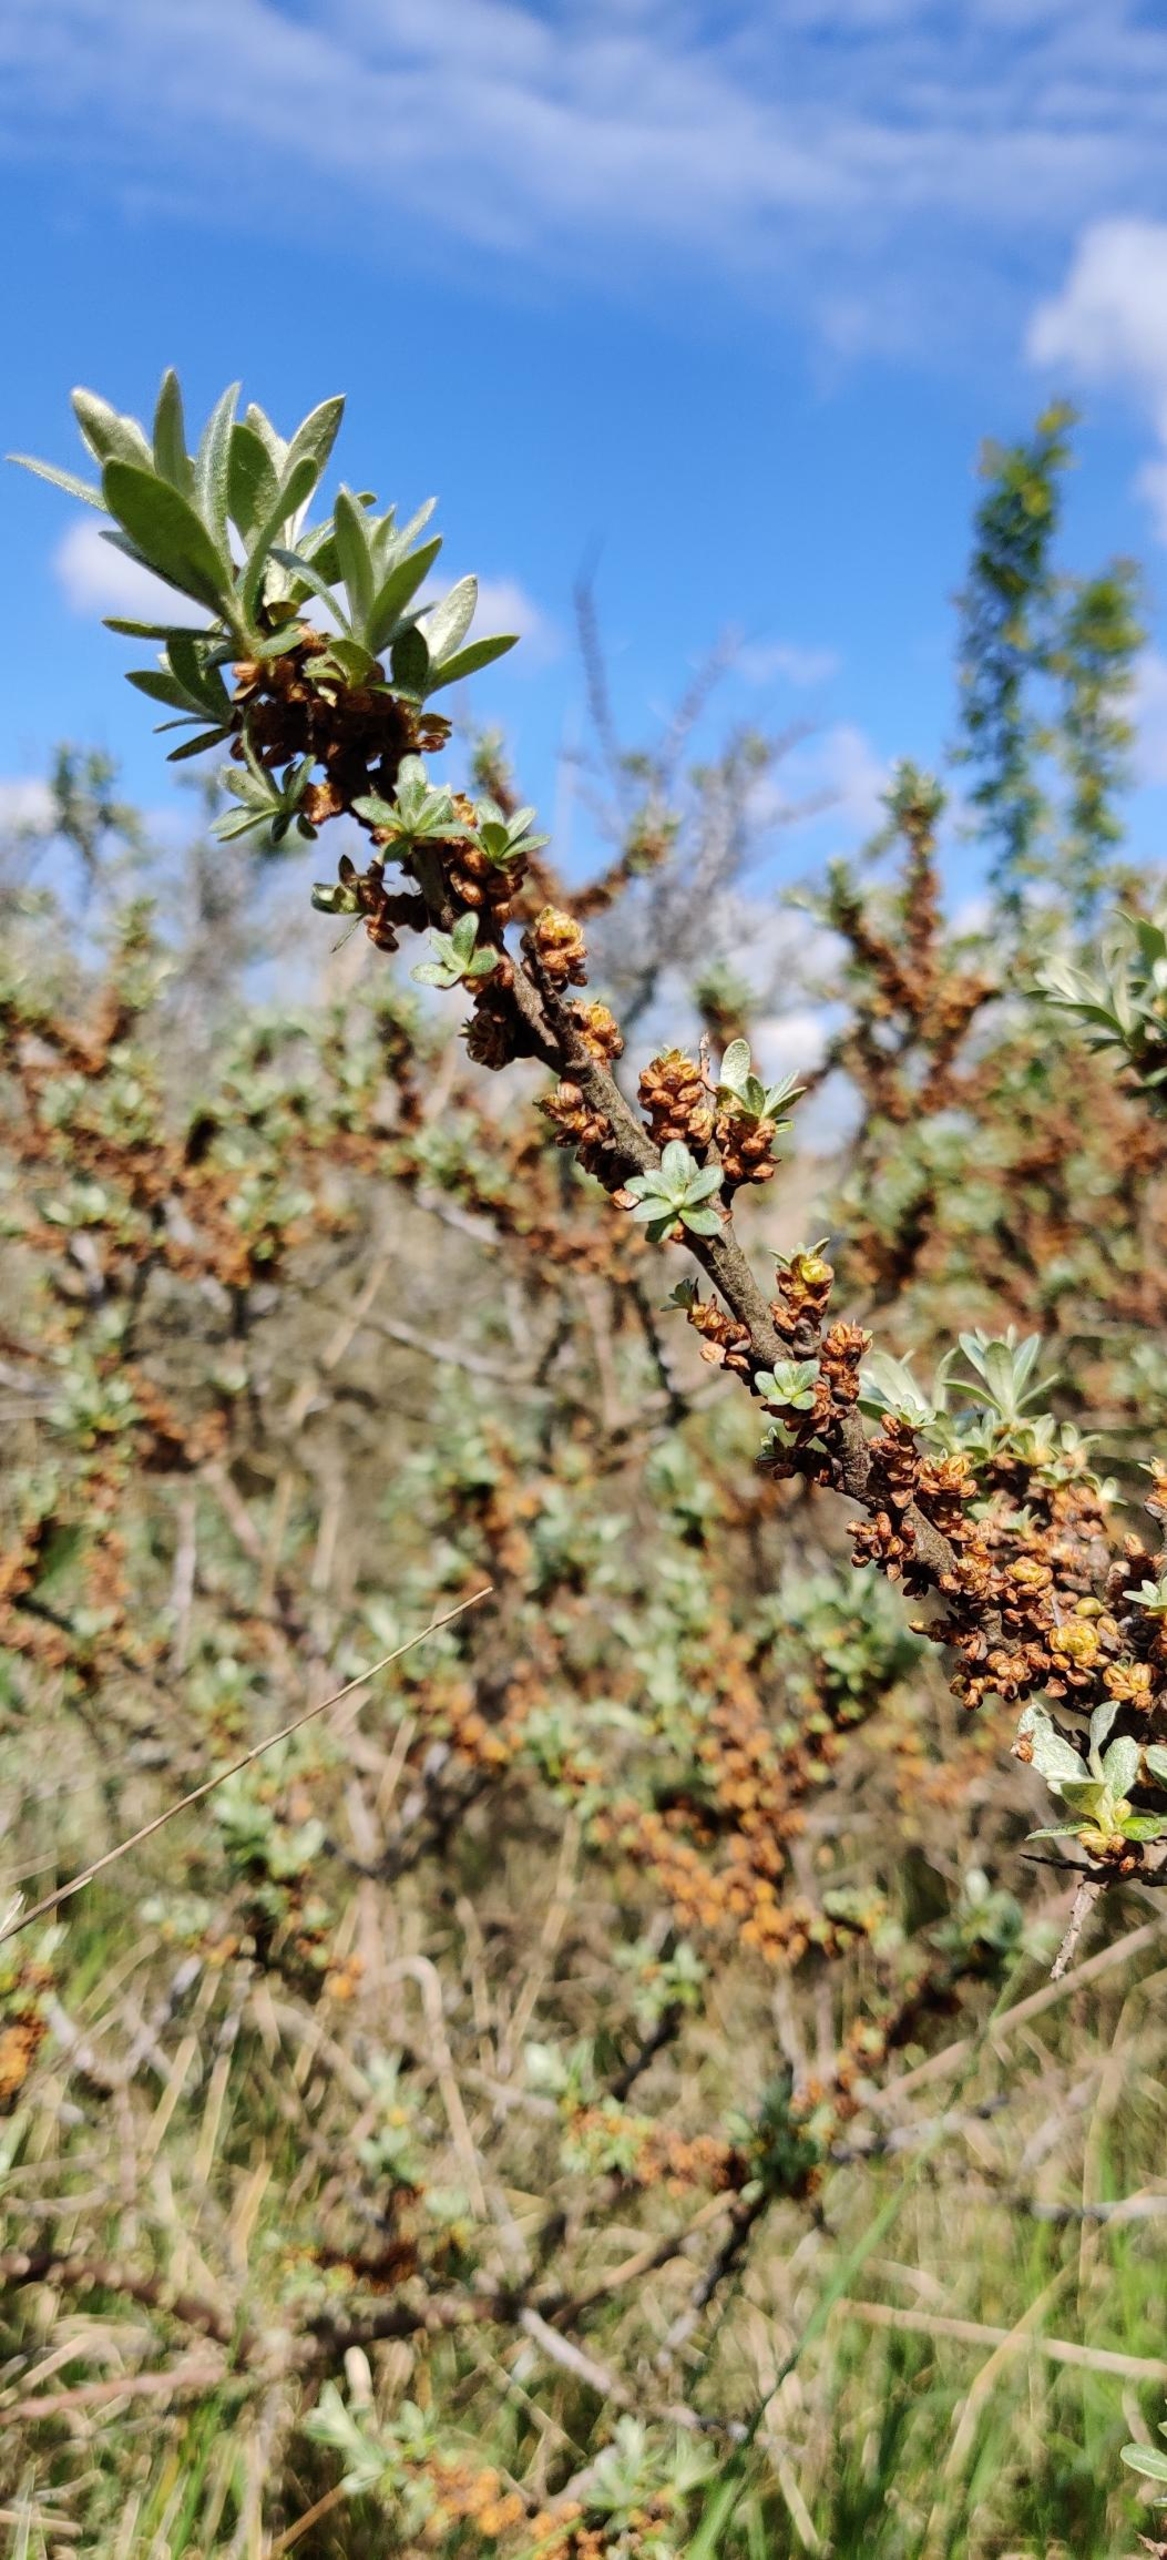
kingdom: Plantae
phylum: Tracheophyta
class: Magnoliopsida
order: Rosales
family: Elaeagnaceae
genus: Hippophae
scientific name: Hippophae rhamnoides
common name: Havtorn
